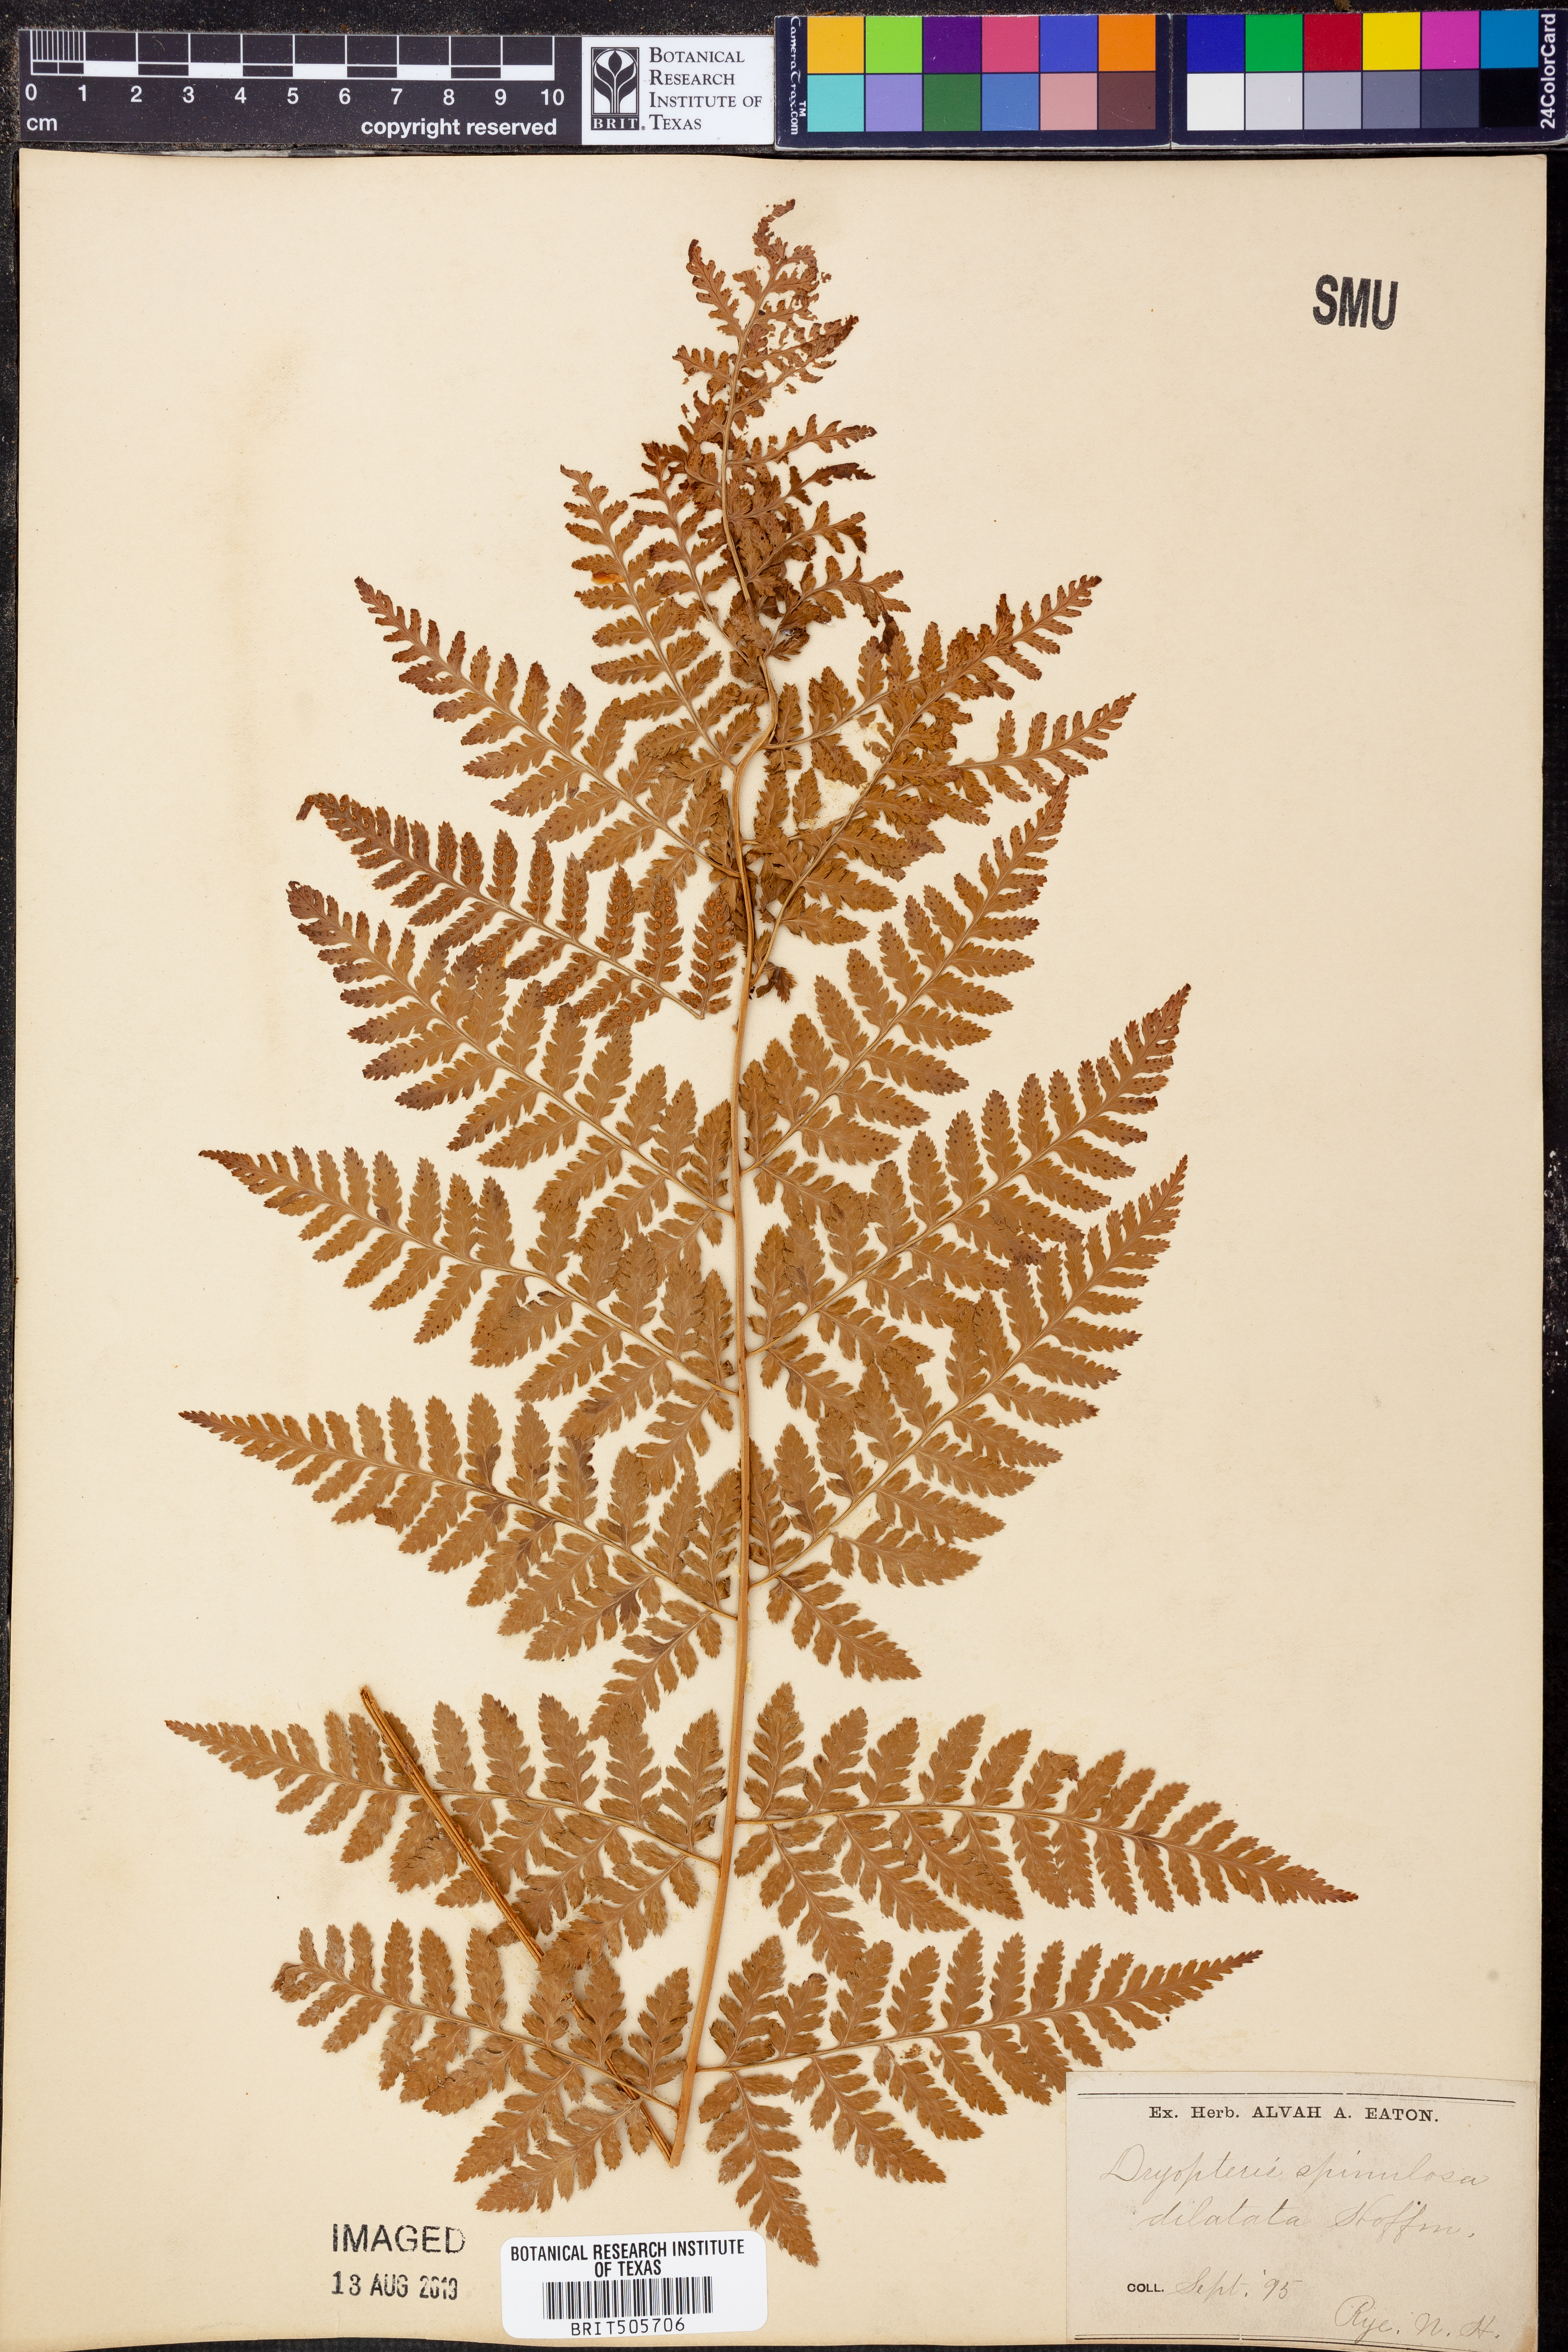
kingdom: Plantae
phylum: Tracheophyta
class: Polypodiopsida
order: Polypodiales
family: Dryopteridaceae
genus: Dryopteris
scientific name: Dryopteris dilatata
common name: Broad buckler-fern
